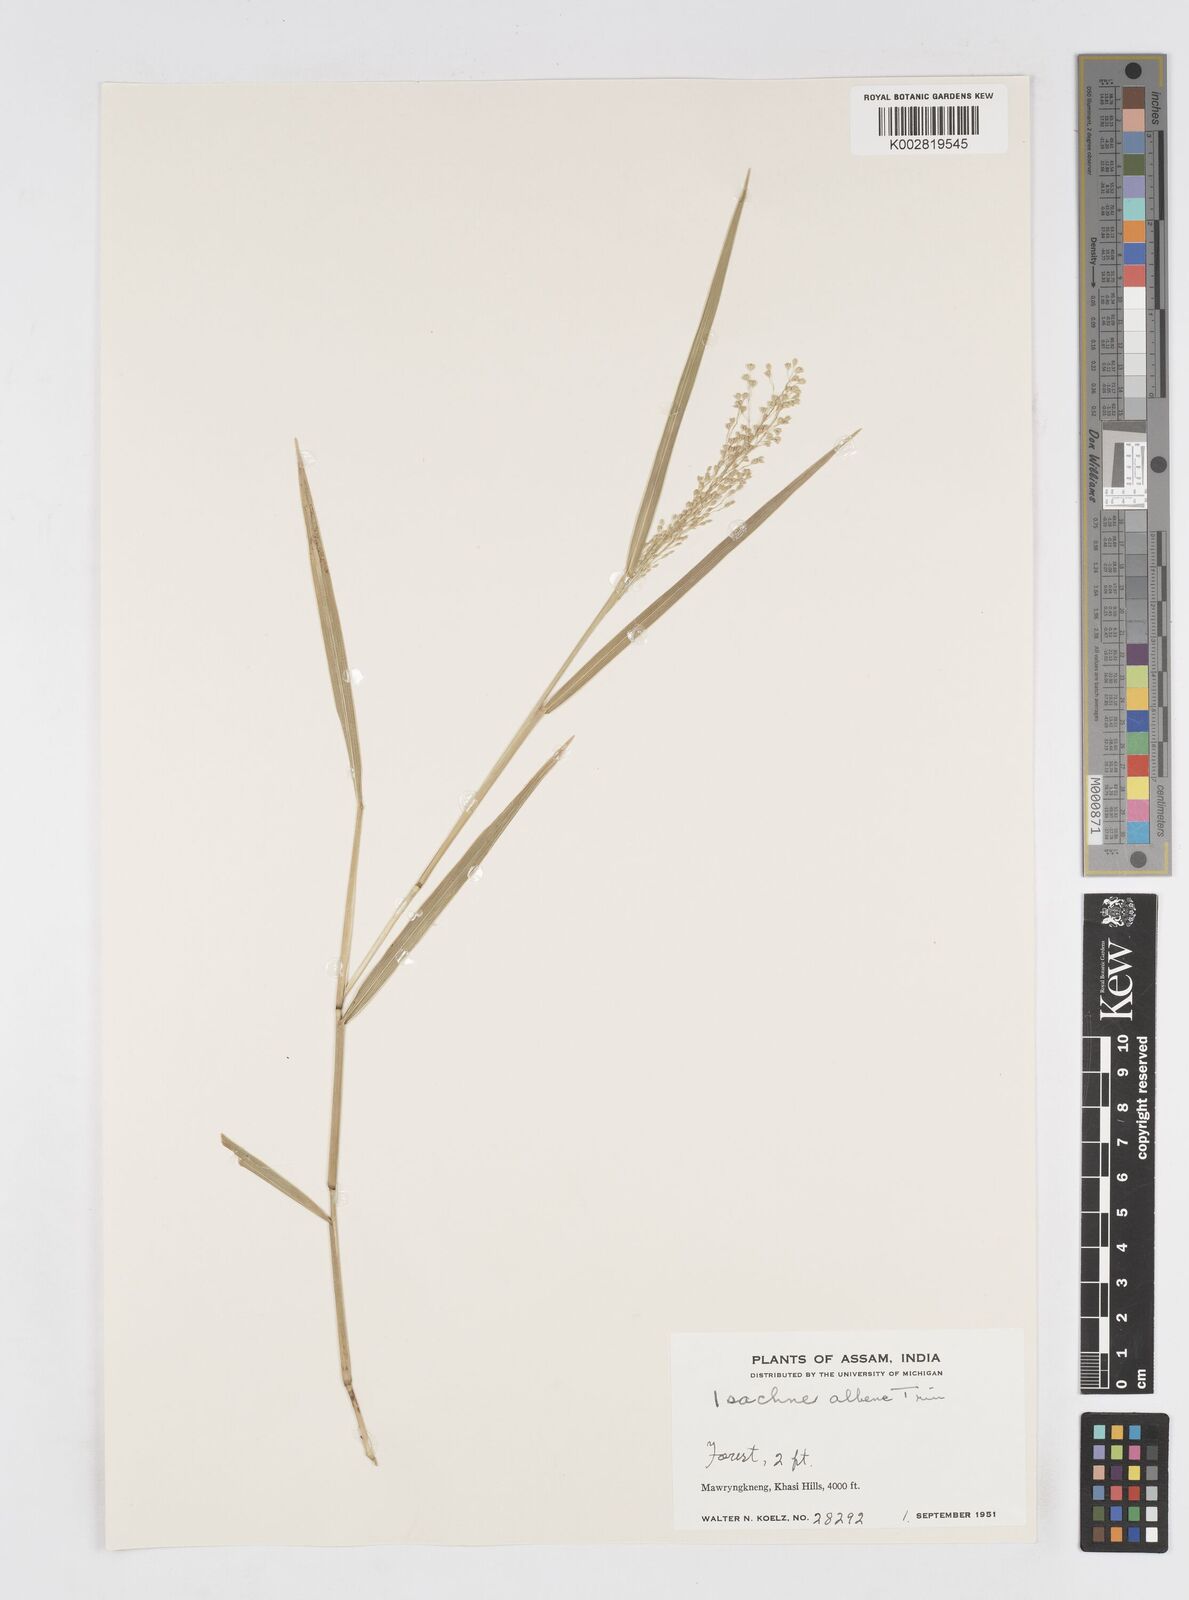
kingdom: Plantae
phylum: Tracheophyta
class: Liliopsida
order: Poales
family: Poaceae
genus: Isachne
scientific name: Isachne albens
